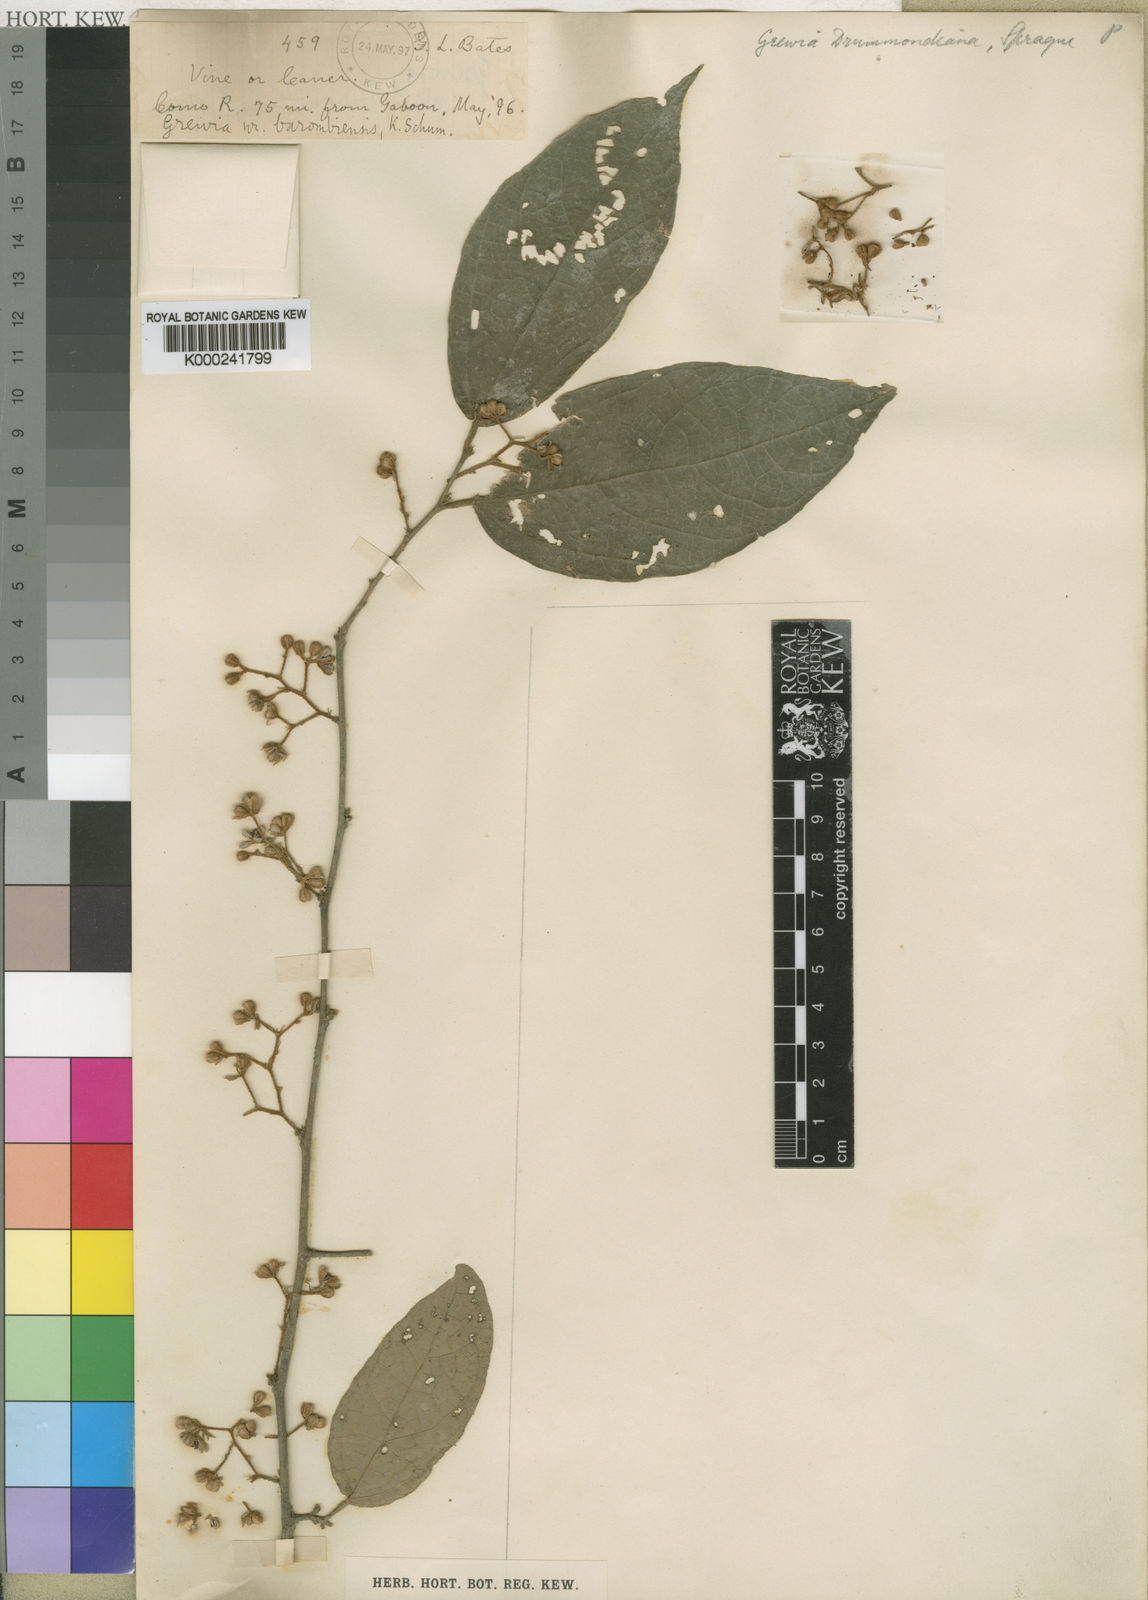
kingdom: Plantae
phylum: Tracheophyta
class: Magnoliopsida
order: Malvales
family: Malvaceae
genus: Microcos
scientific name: Microcos barombiensis
